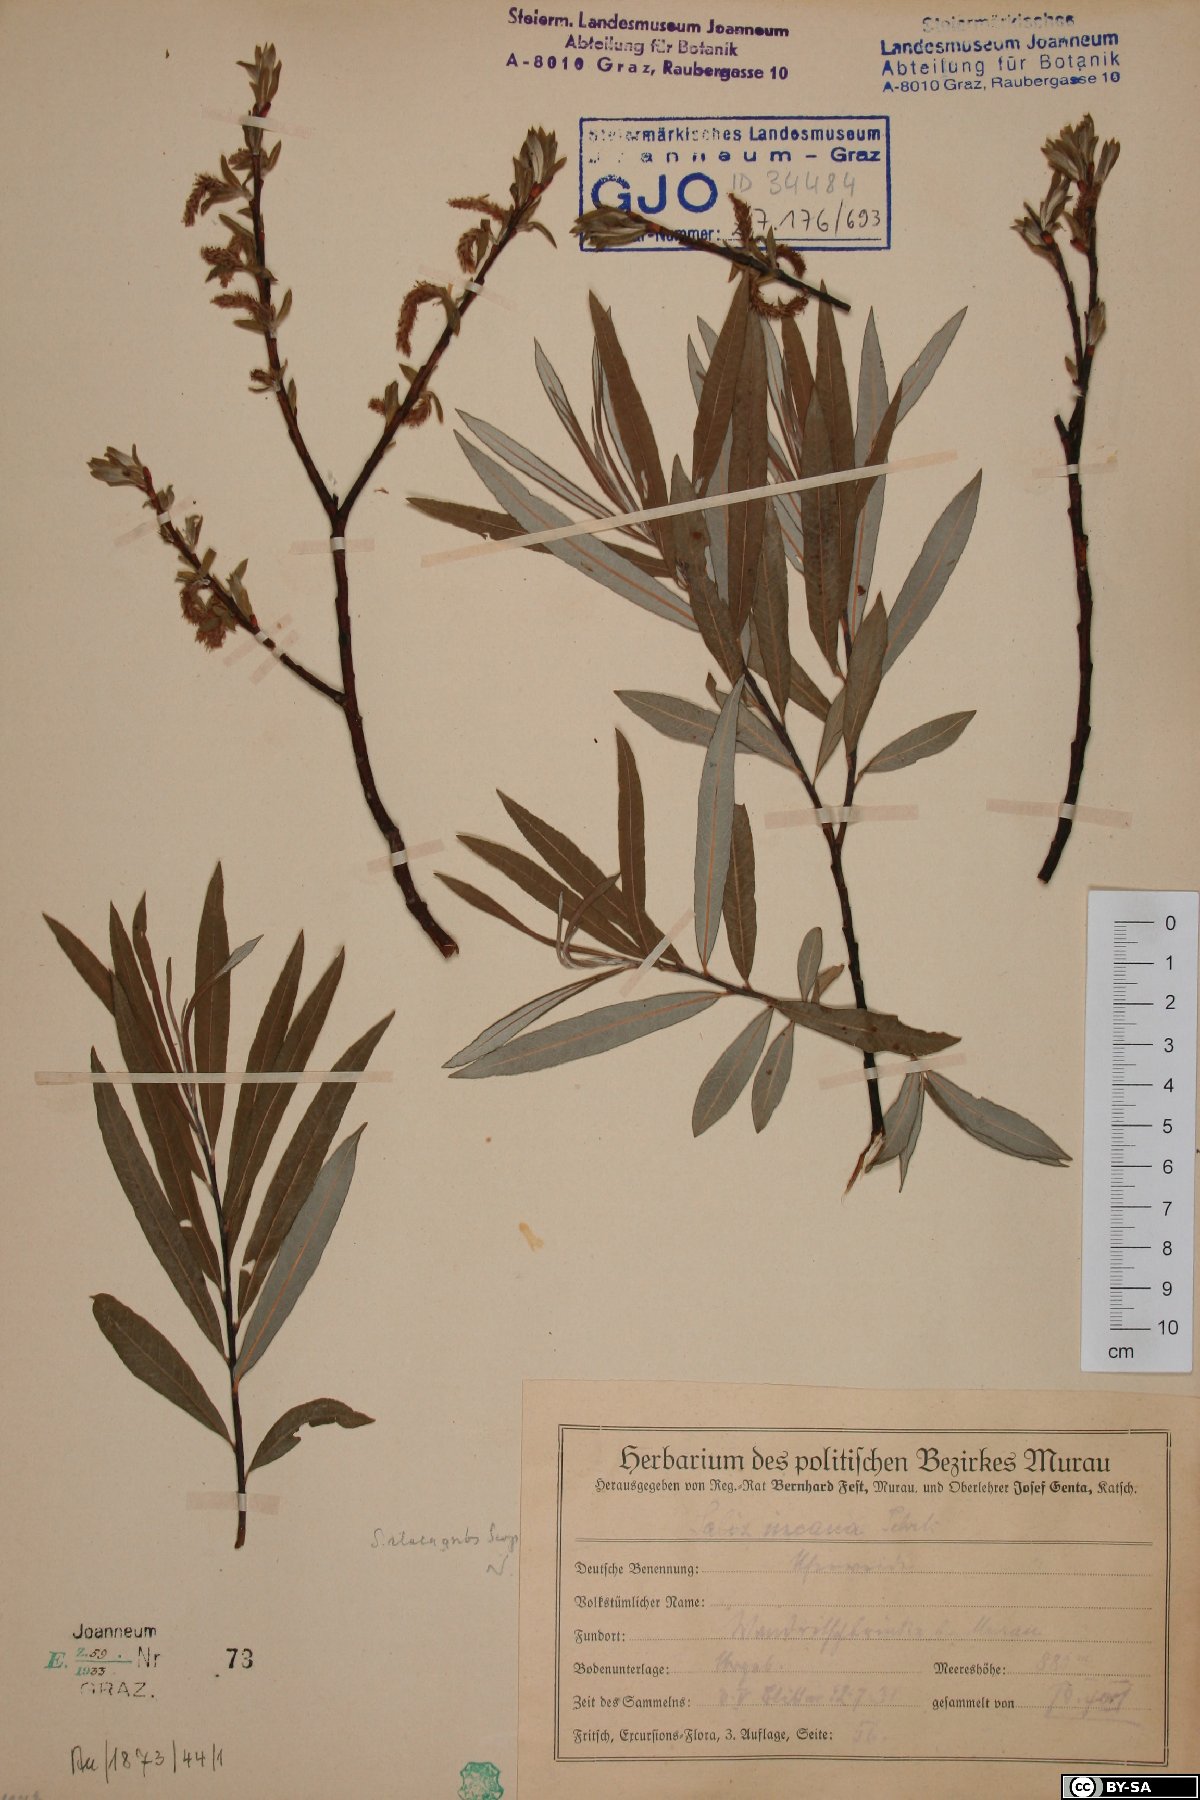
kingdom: Plantae
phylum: Tracheophyta
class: Magnoliopsida
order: Malpighiales
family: Salicaceae
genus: Salix
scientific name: Salix eleagnos
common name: Elaeagnus willow
